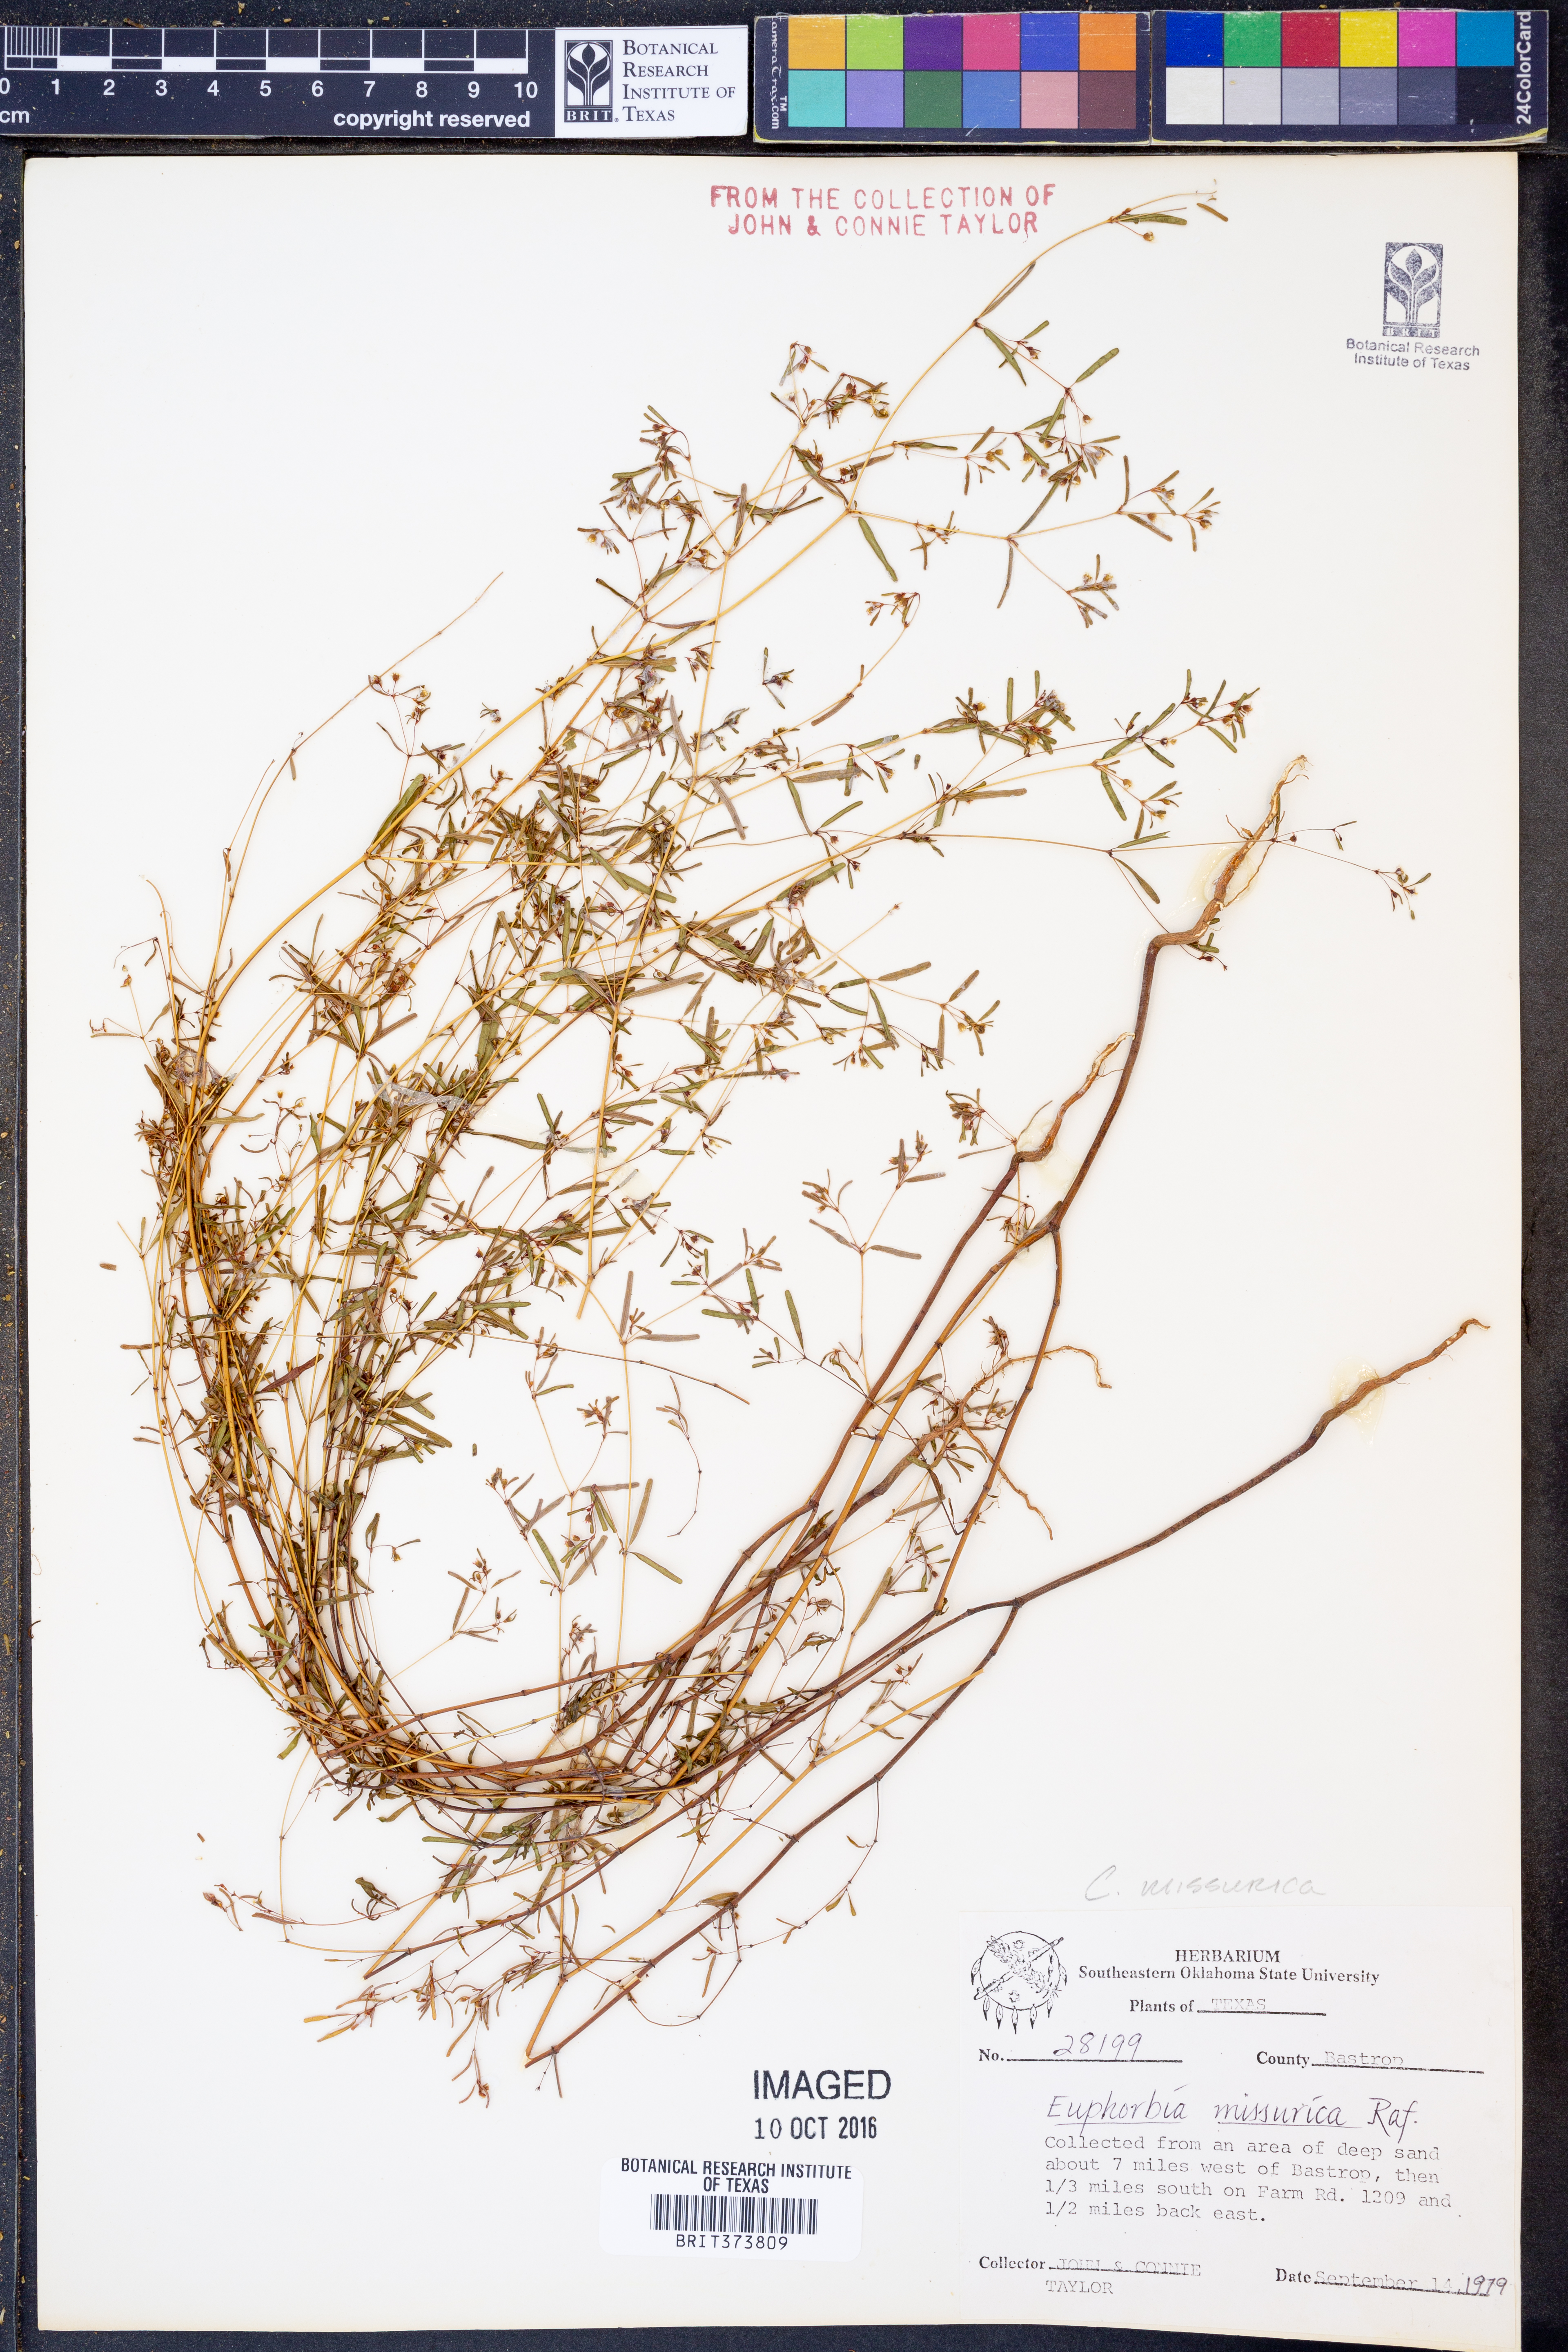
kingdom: Plantae
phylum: Tracheophyta
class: Magnoliopsida
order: Malpighiales
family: Euphorbiaceae
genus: Euphorbia
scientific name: Euphorbia missurica
